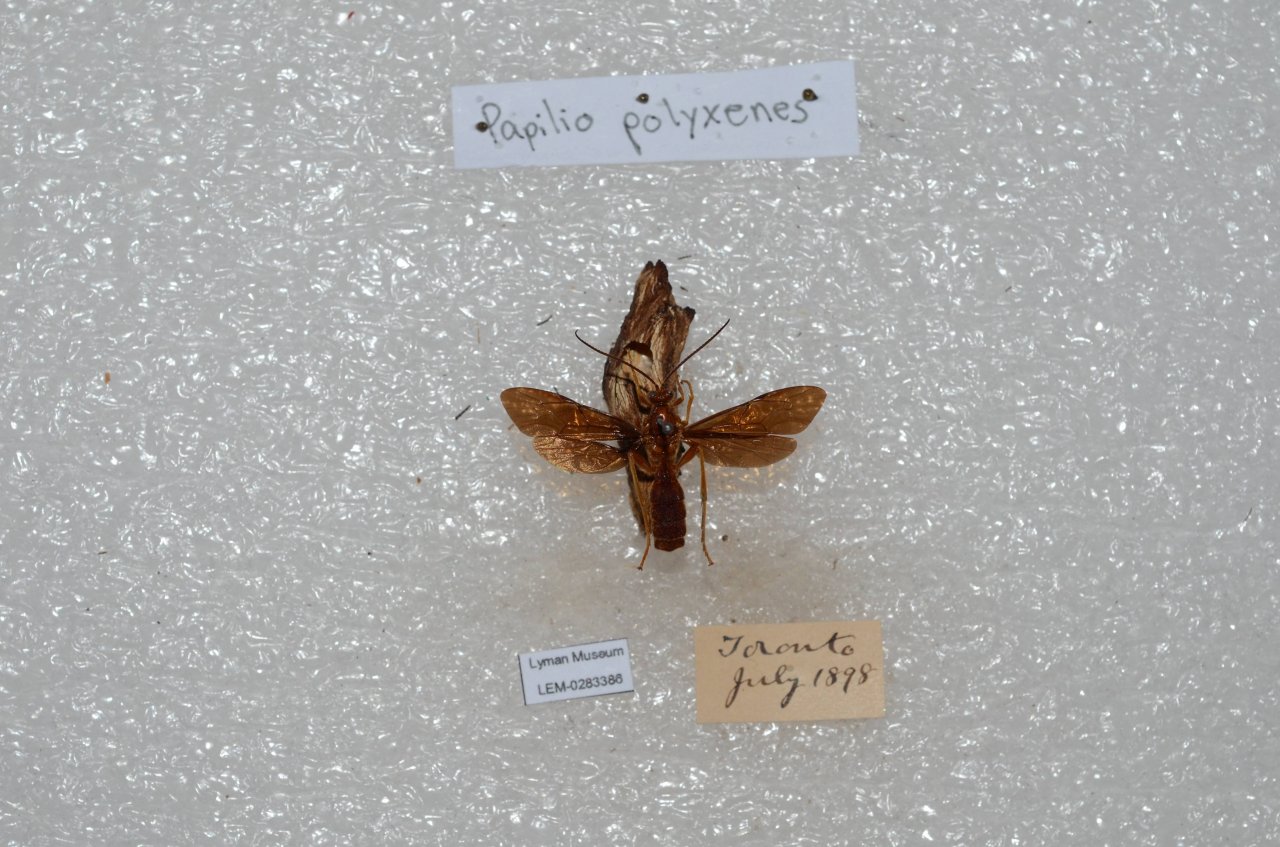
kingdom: Animalia
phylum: Arthropoda
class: Insecta
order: Lepidoptera
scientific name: Lepidoptera
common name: Butterflies
